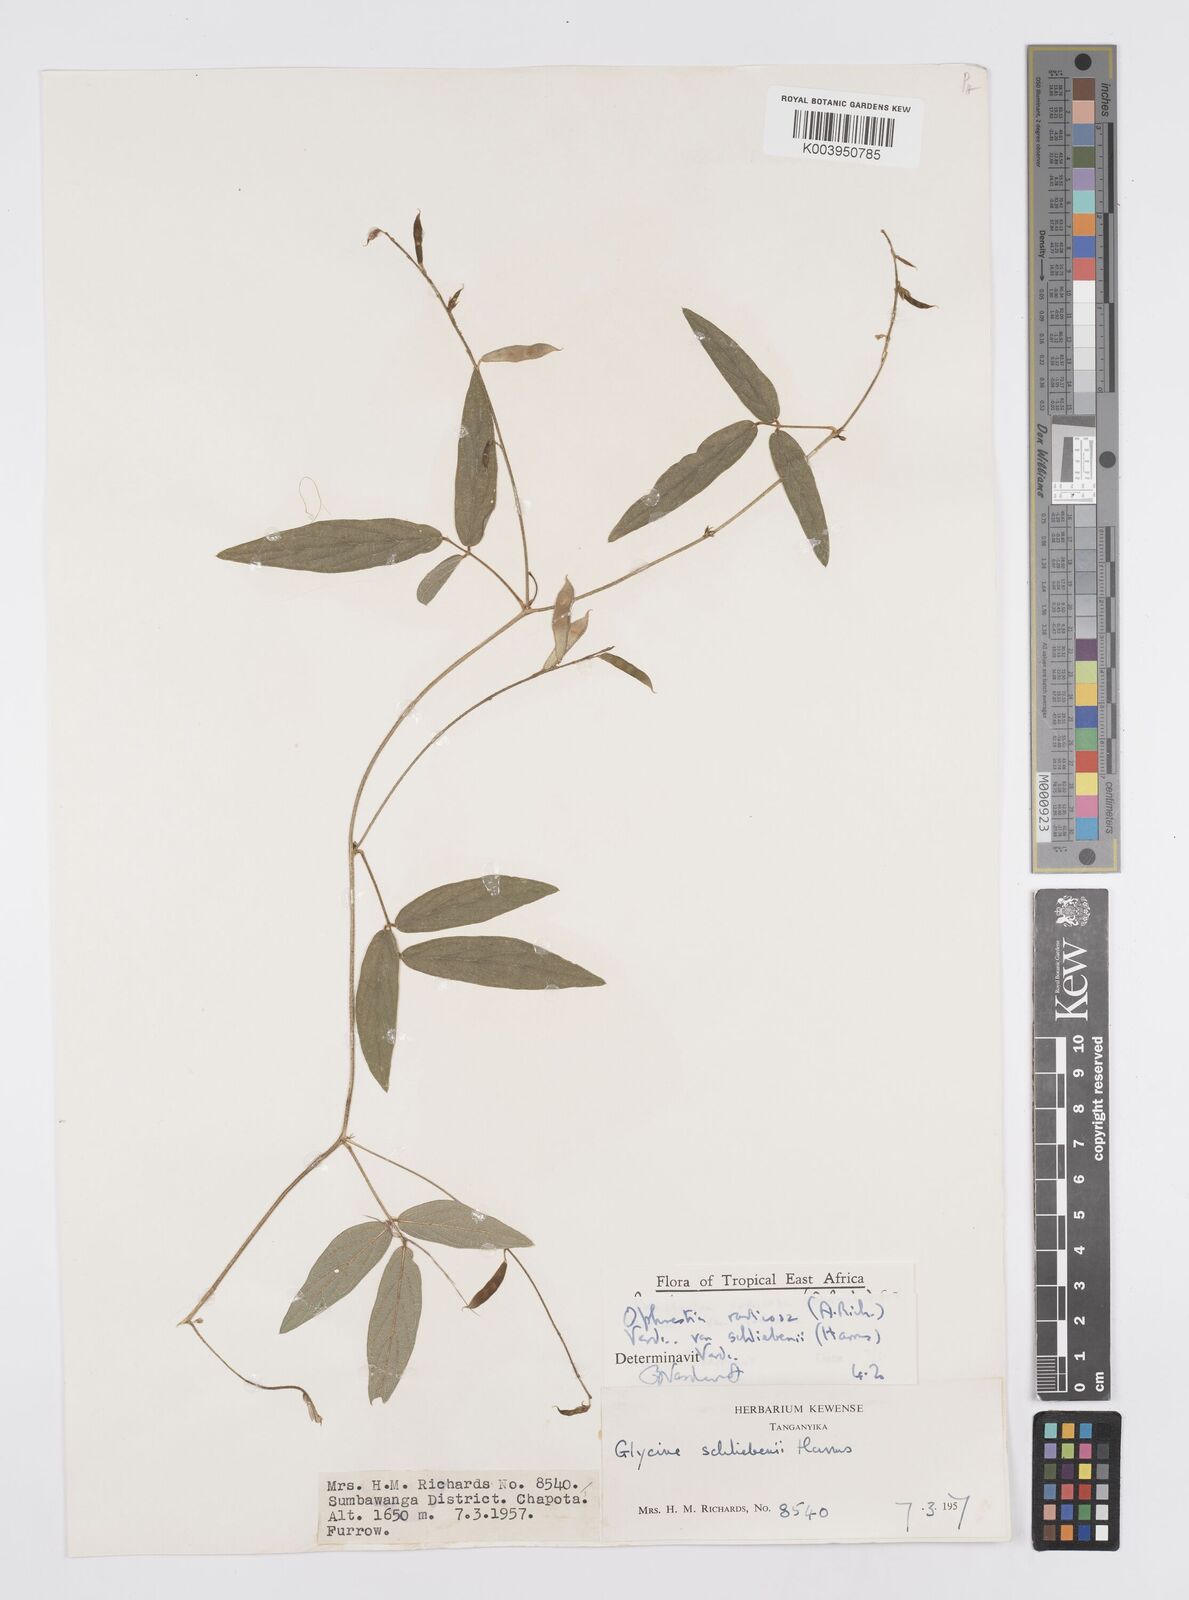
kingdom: Plantae
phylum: Tracheophyta
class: Magnoliopsida
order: Fabales
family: Fabaceae
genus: Ophrestia
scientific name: Ophrestia radicosa
